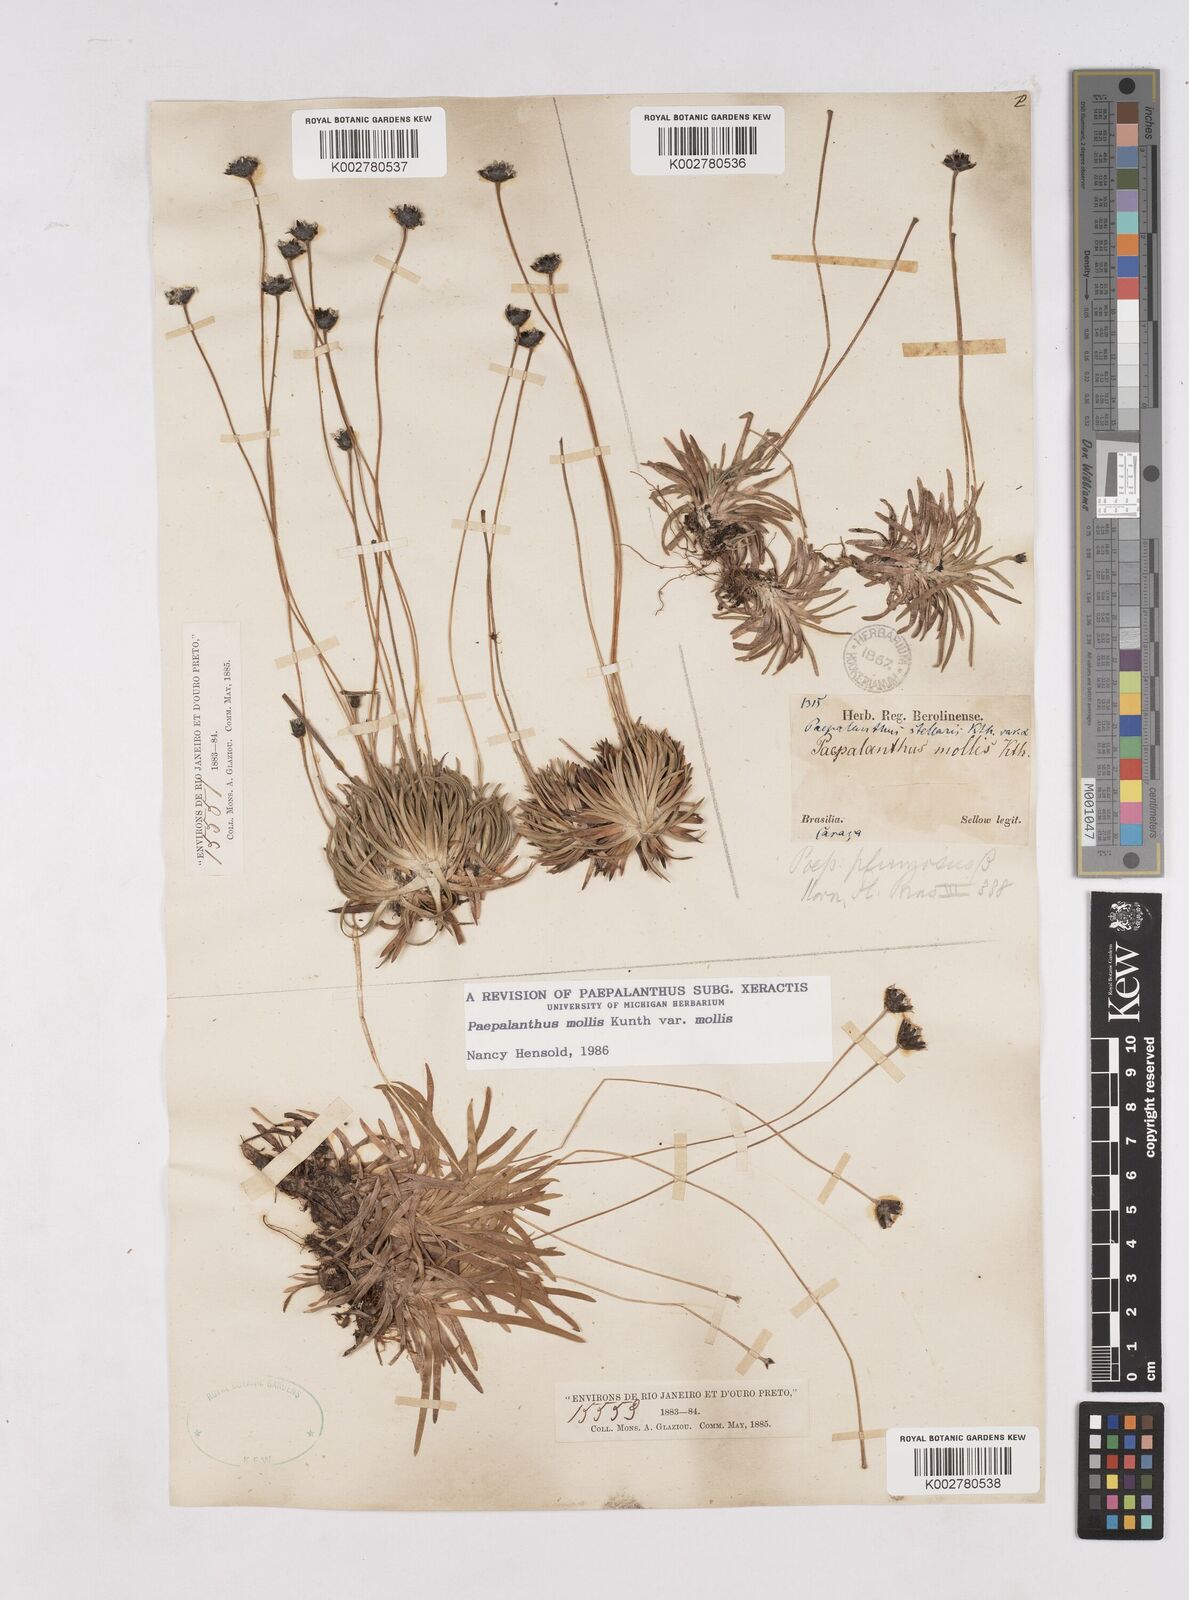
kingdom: Plantae
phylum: Tracheophyta
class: Liliopsida
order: Poales
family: Eriocaulaceae
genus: Paepalanthus
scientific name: Paepalanthus mollis
